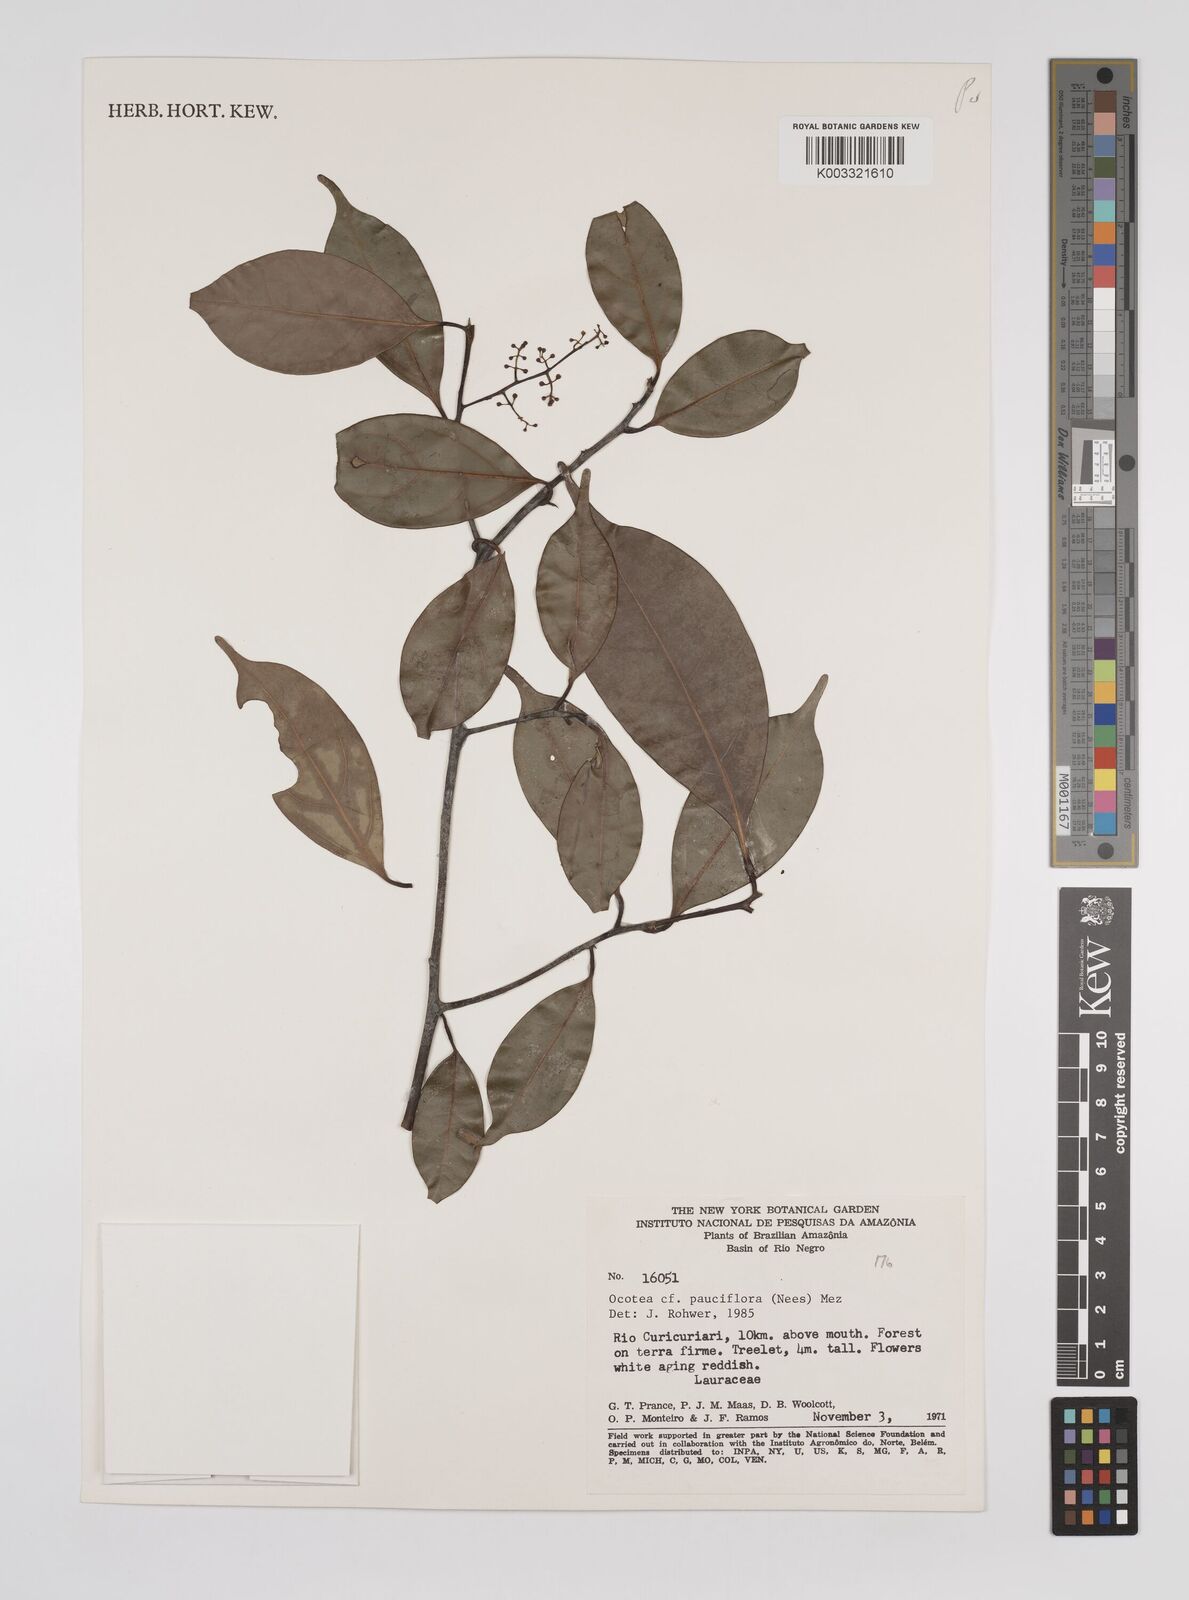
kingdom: Plantae
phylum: Tracheophyta
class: Magnoliopsida
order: Laurales
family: Lauraceae
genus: Ocotea
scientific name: Ocotea pauciflora
